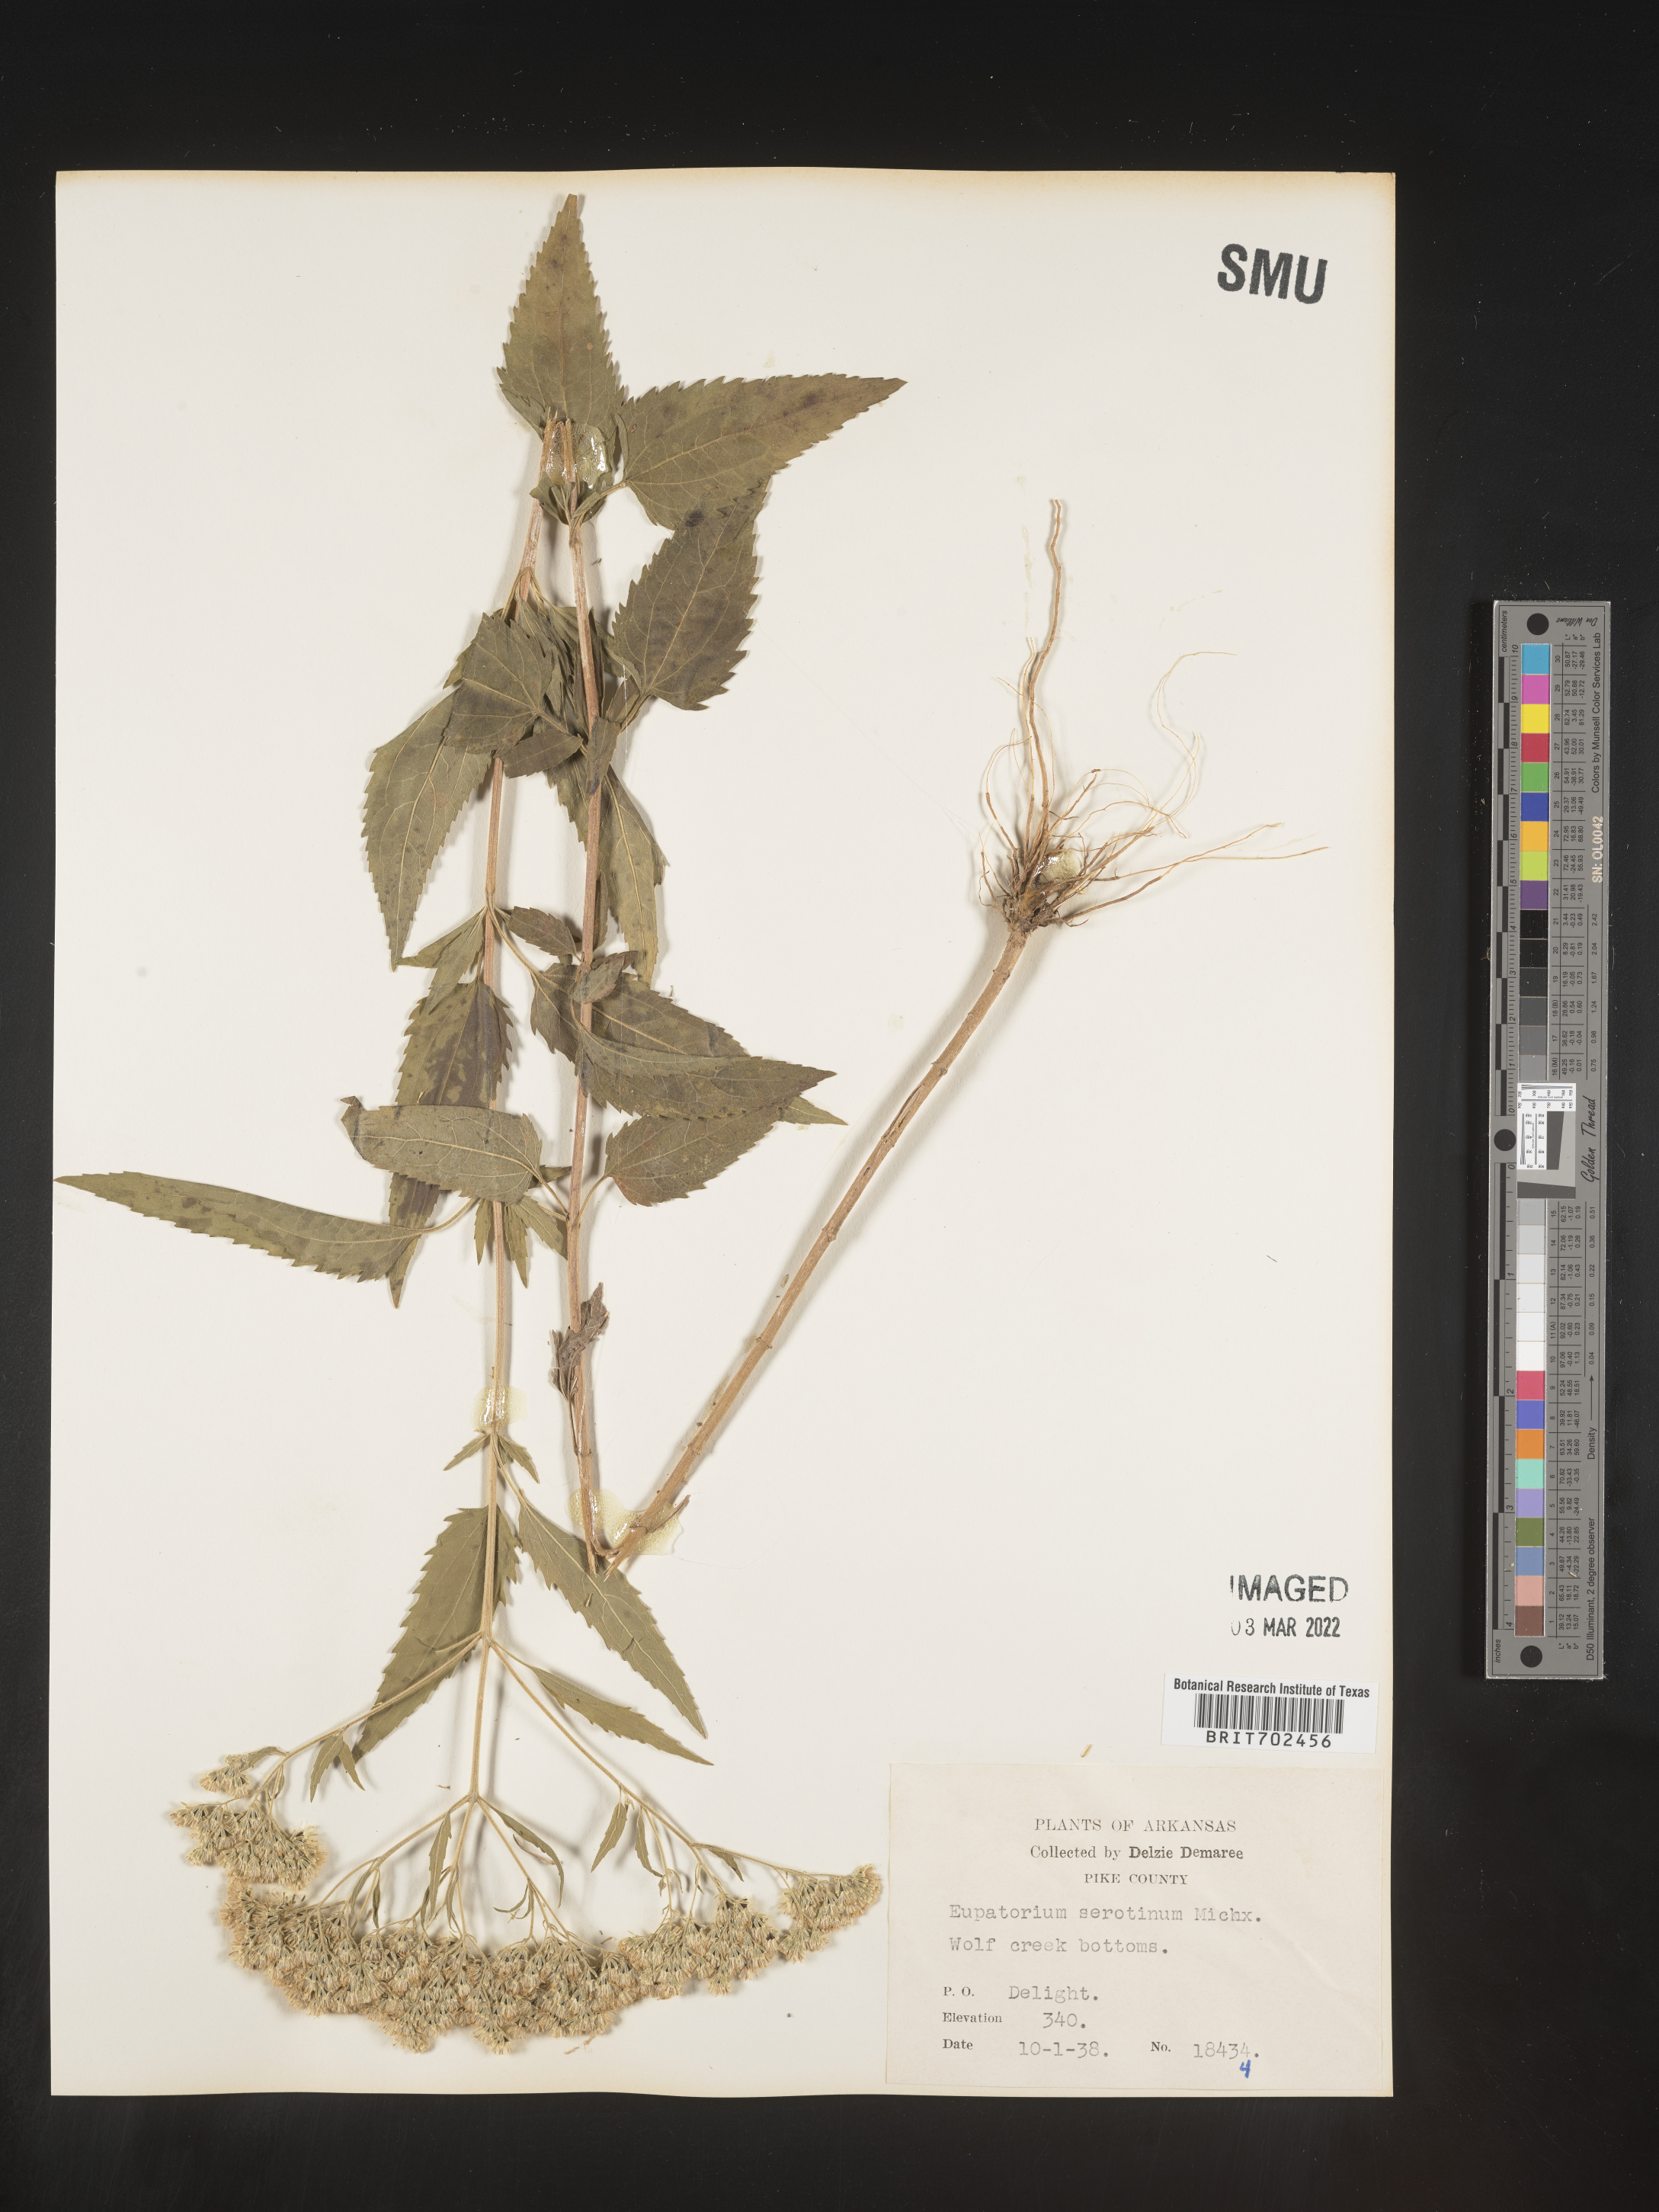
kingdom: Plantae
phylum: Tracheophyta
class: Magnoliopsida
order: Asterales
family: Asteraceae
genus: Eupatorium
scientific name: Eupatorium serotinum
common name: Late boneset
